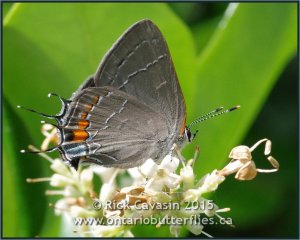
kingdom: Animalia
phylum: Arthropoda
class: Insecta
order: Lepidoptera
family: Lycaenidae
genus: Fixsenia
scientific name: Fixsenia favonius
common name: Oak Hairstreak
